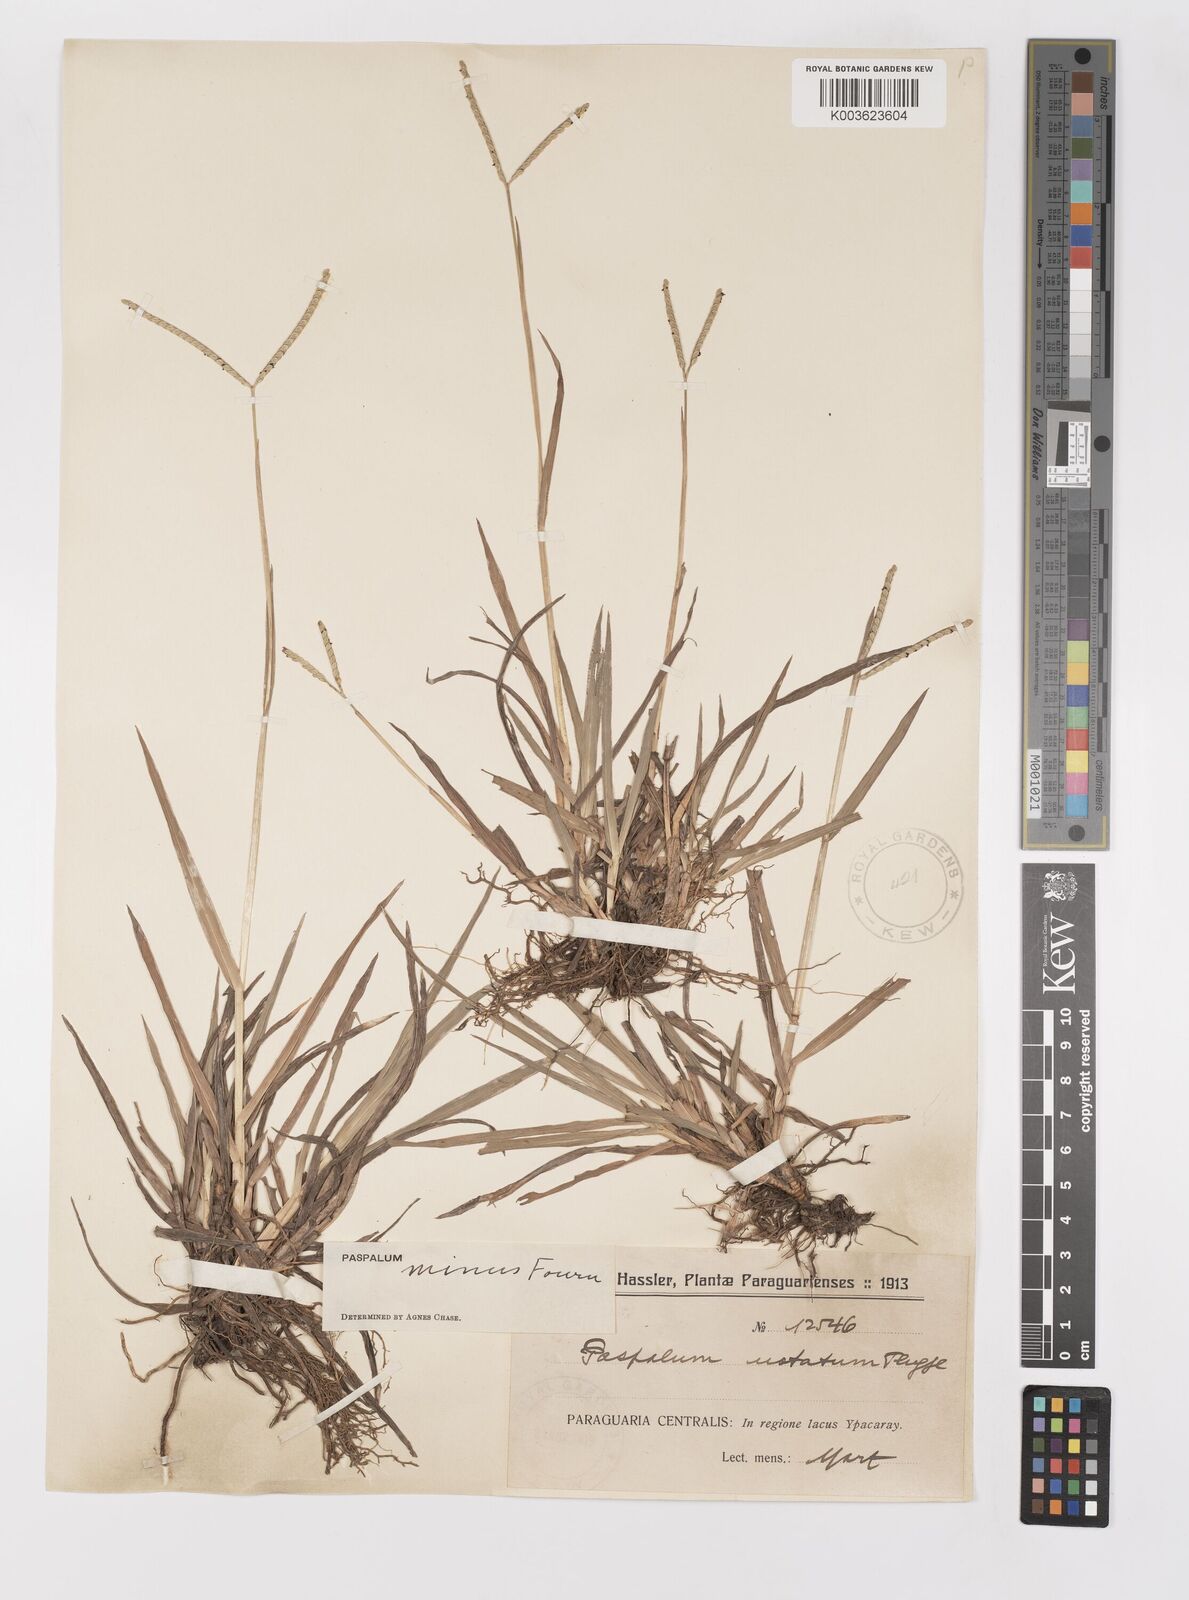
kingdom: Plantae
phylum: Tracheophyta
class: Liliopsida
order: Poales
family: Poaceae
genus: Paspalum
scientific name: Paspalum minus
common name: Matted paspalum
